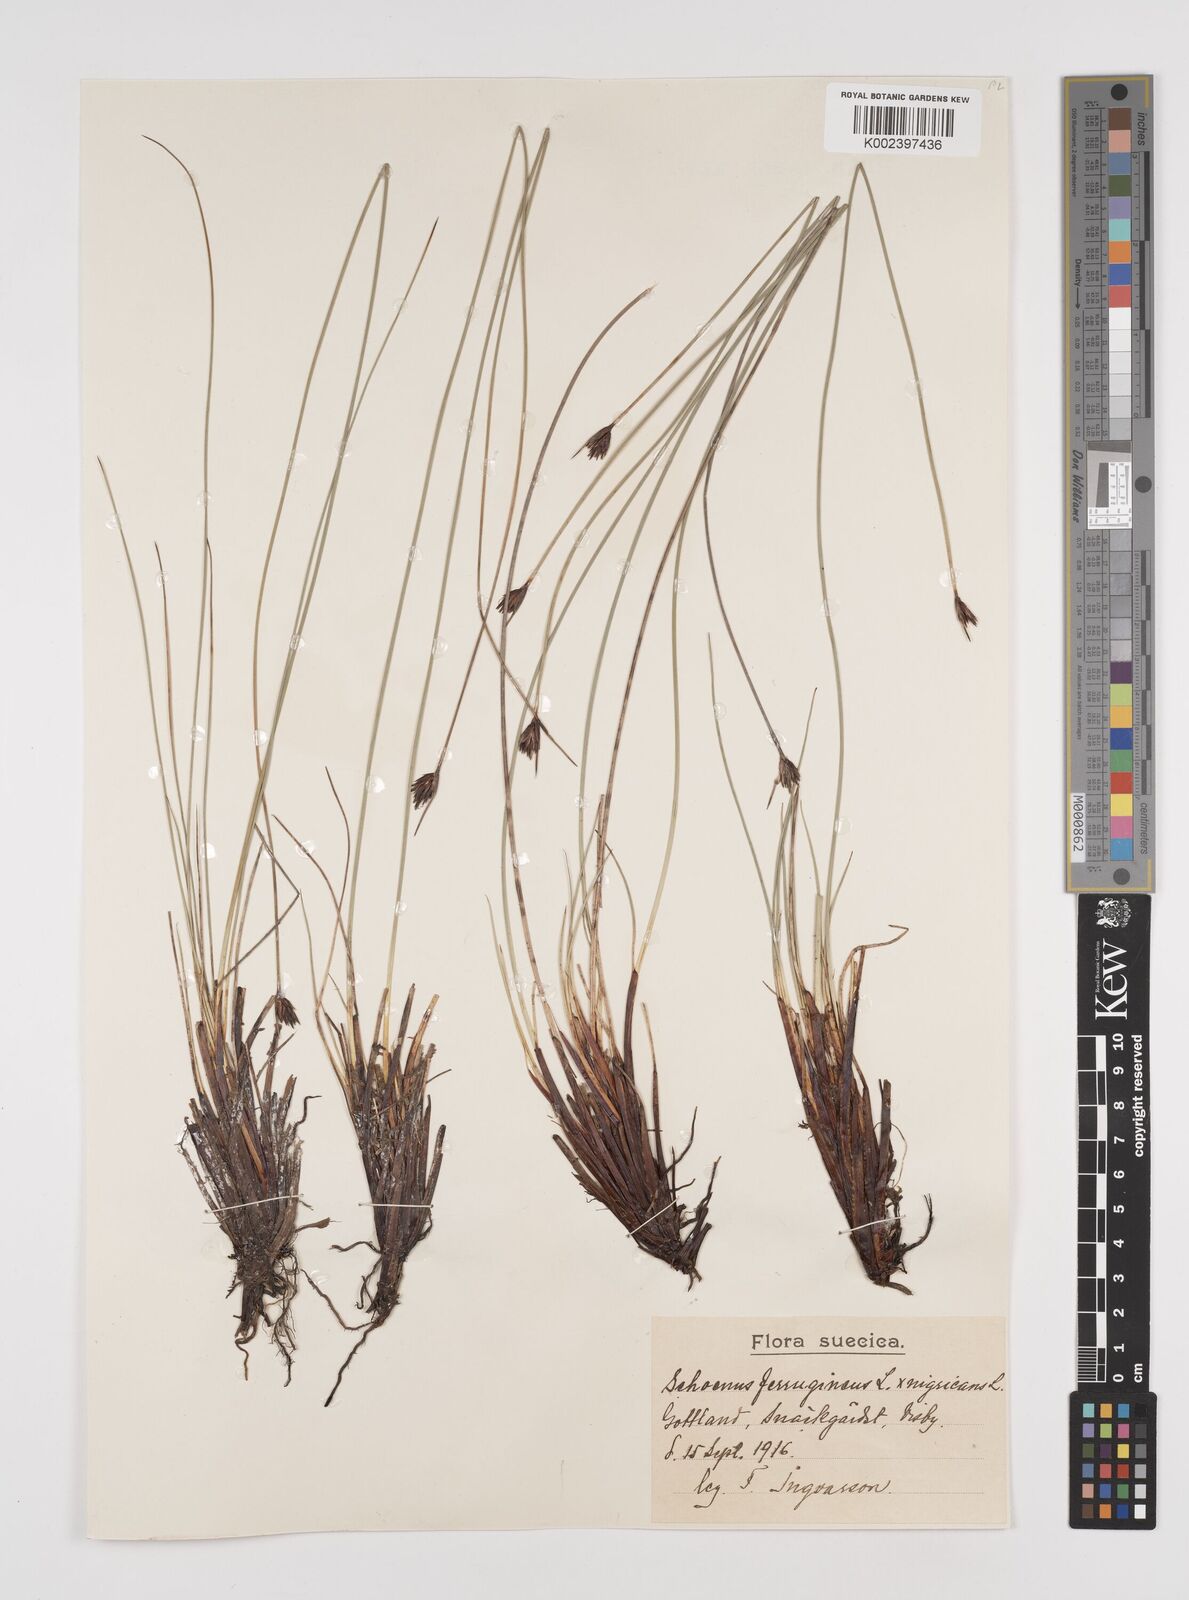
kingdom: Plantae
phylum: Tracheophyta
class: Liliopsida
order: Poales
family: Cyperaceae
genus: Schoenus
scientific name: Schoenus ferrugineus
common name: Brown bog-rush
